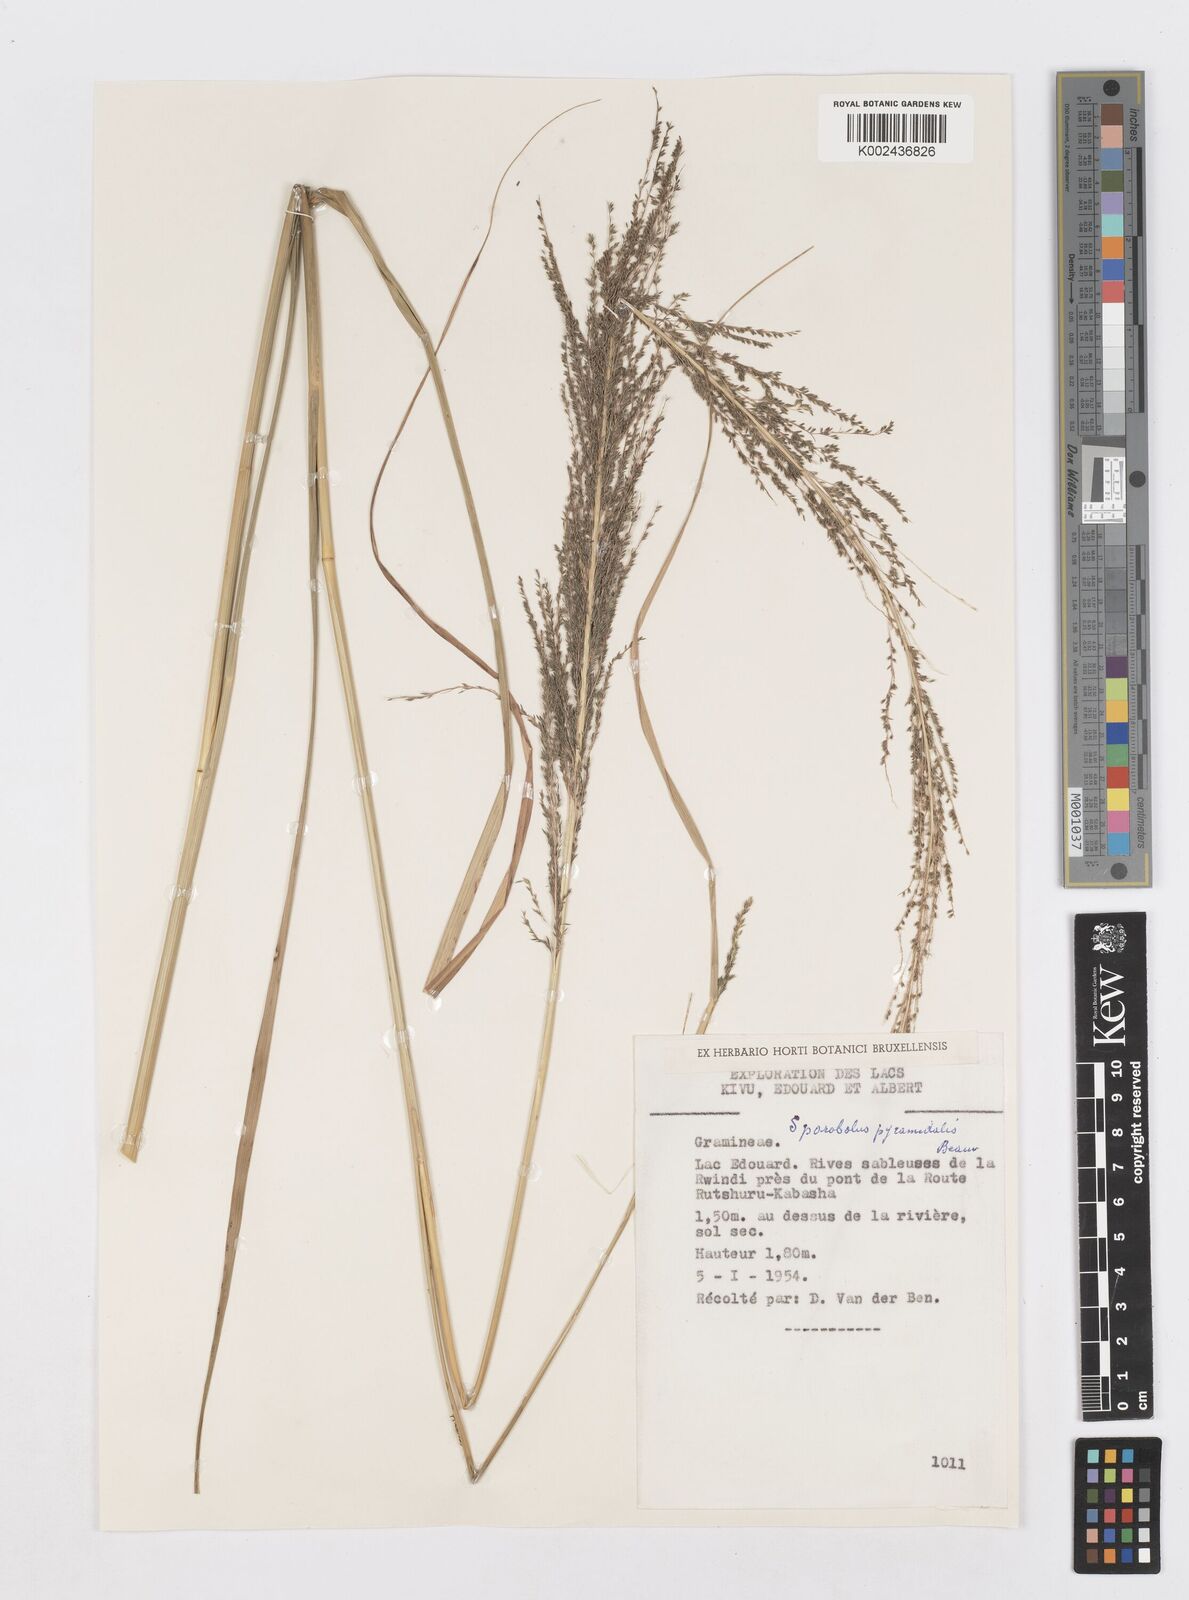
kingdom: Plantae
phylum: Tracheophyta
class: Liliopsida
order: Poales
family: Poaceae
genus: Sporobolus
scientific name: Sporobolus pyramidalis
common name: West indian dropseed
